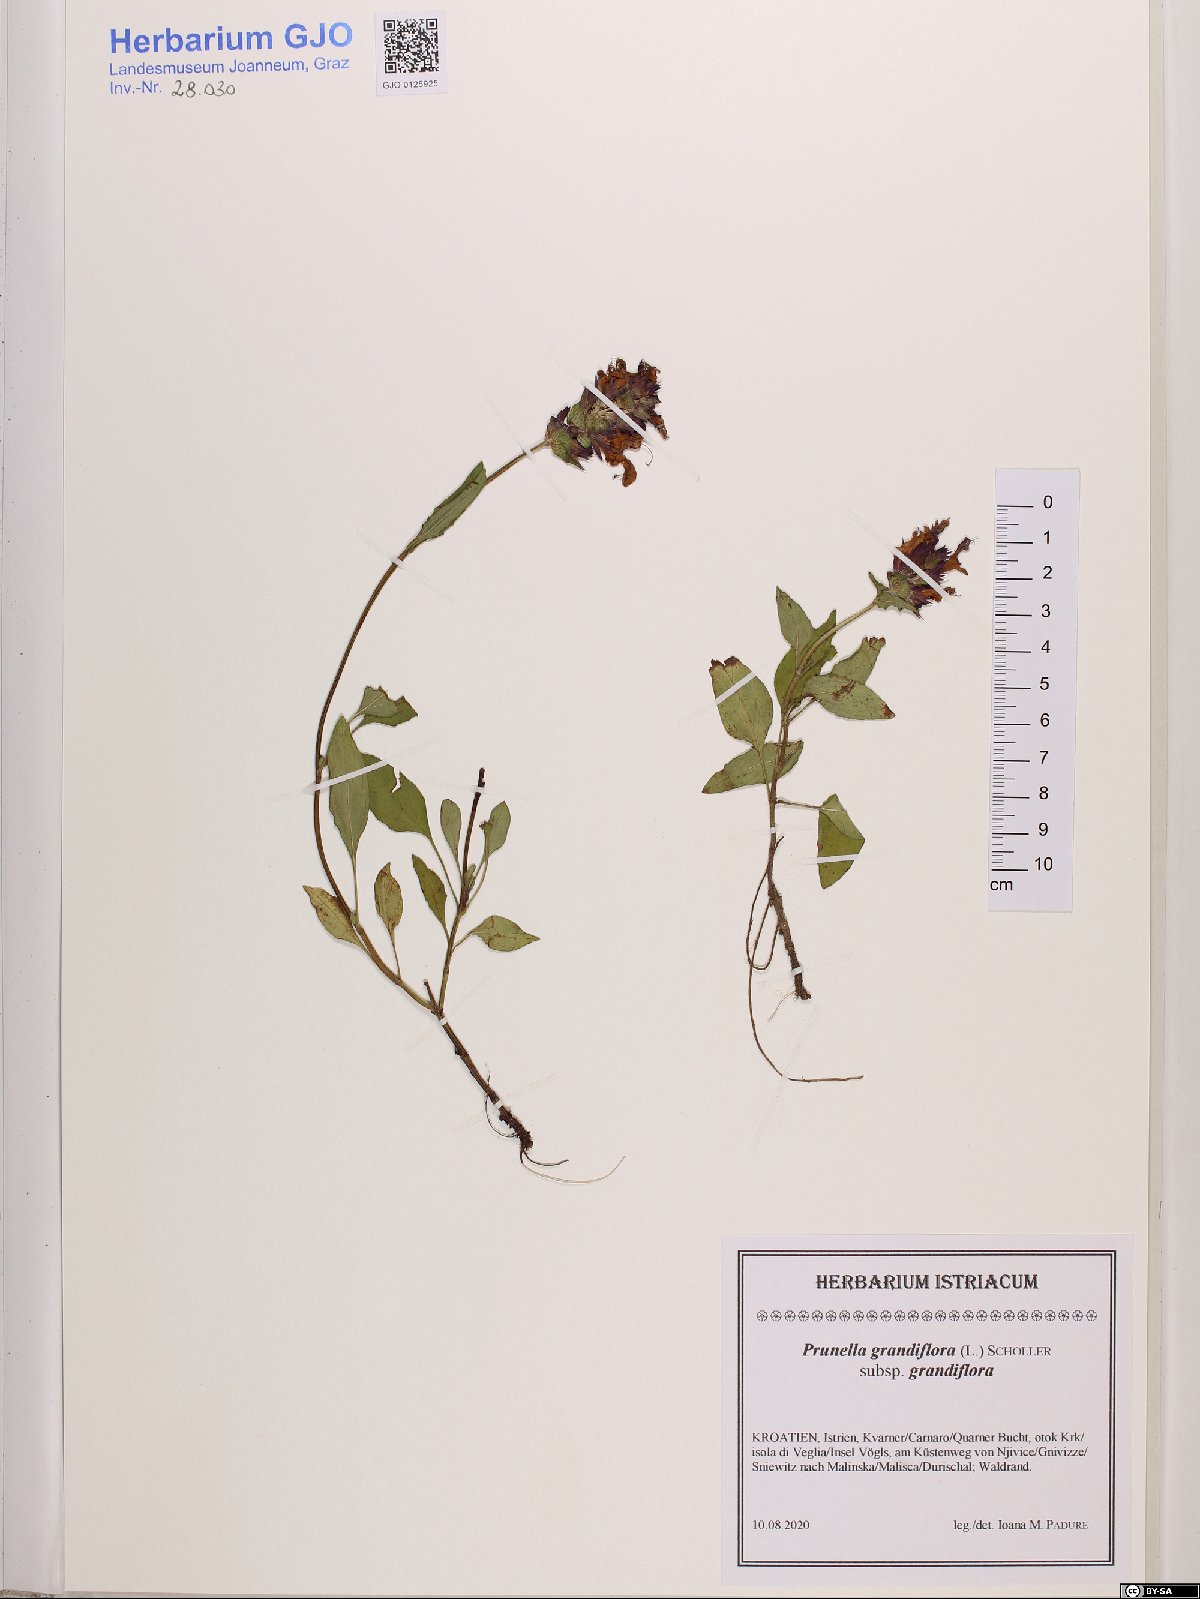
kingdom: Plantae
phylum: Tracheophyta
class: Magnoliopsida
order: Lamiales
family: Lamiaceae
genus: Prunella
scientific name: Prunella grandiflora
